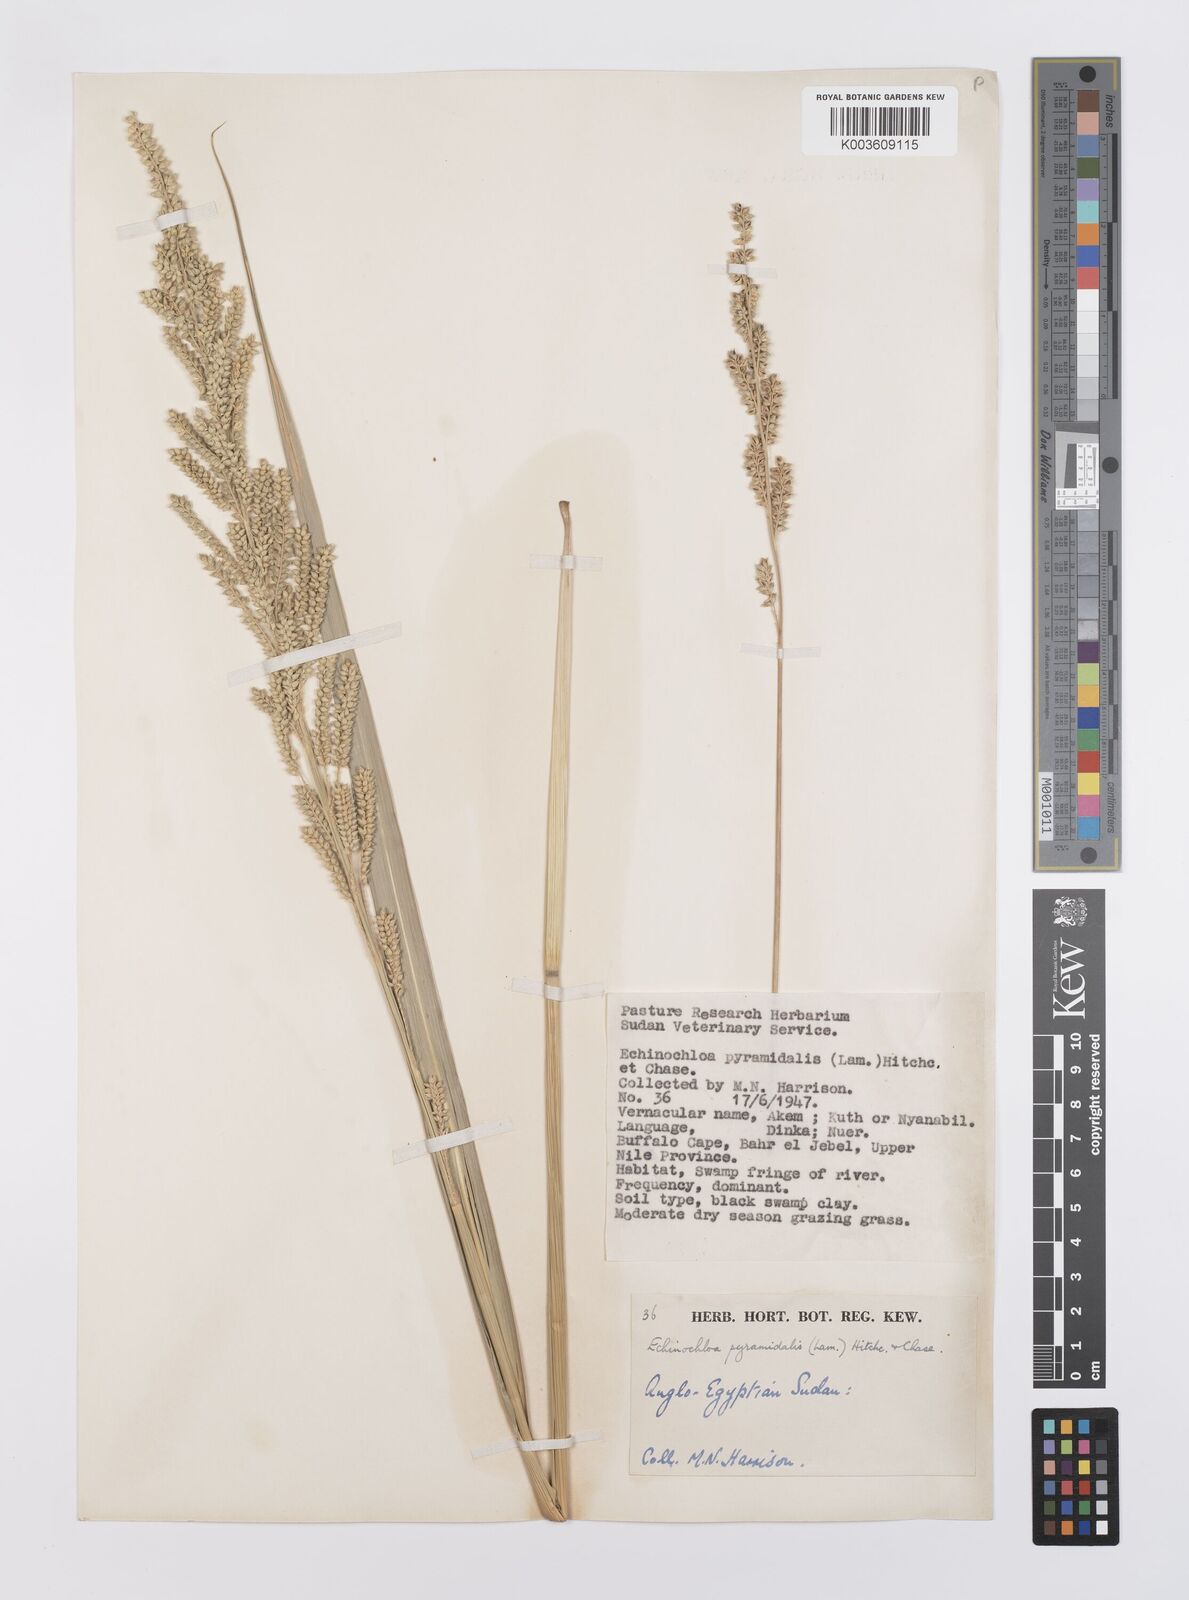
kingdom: Plantae
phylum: Tracheophyta
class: Liliopsida
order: Poales
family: Poaceae
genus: Echinochloa
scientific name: Echinochloa pyramidalis
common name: Antelope grass
